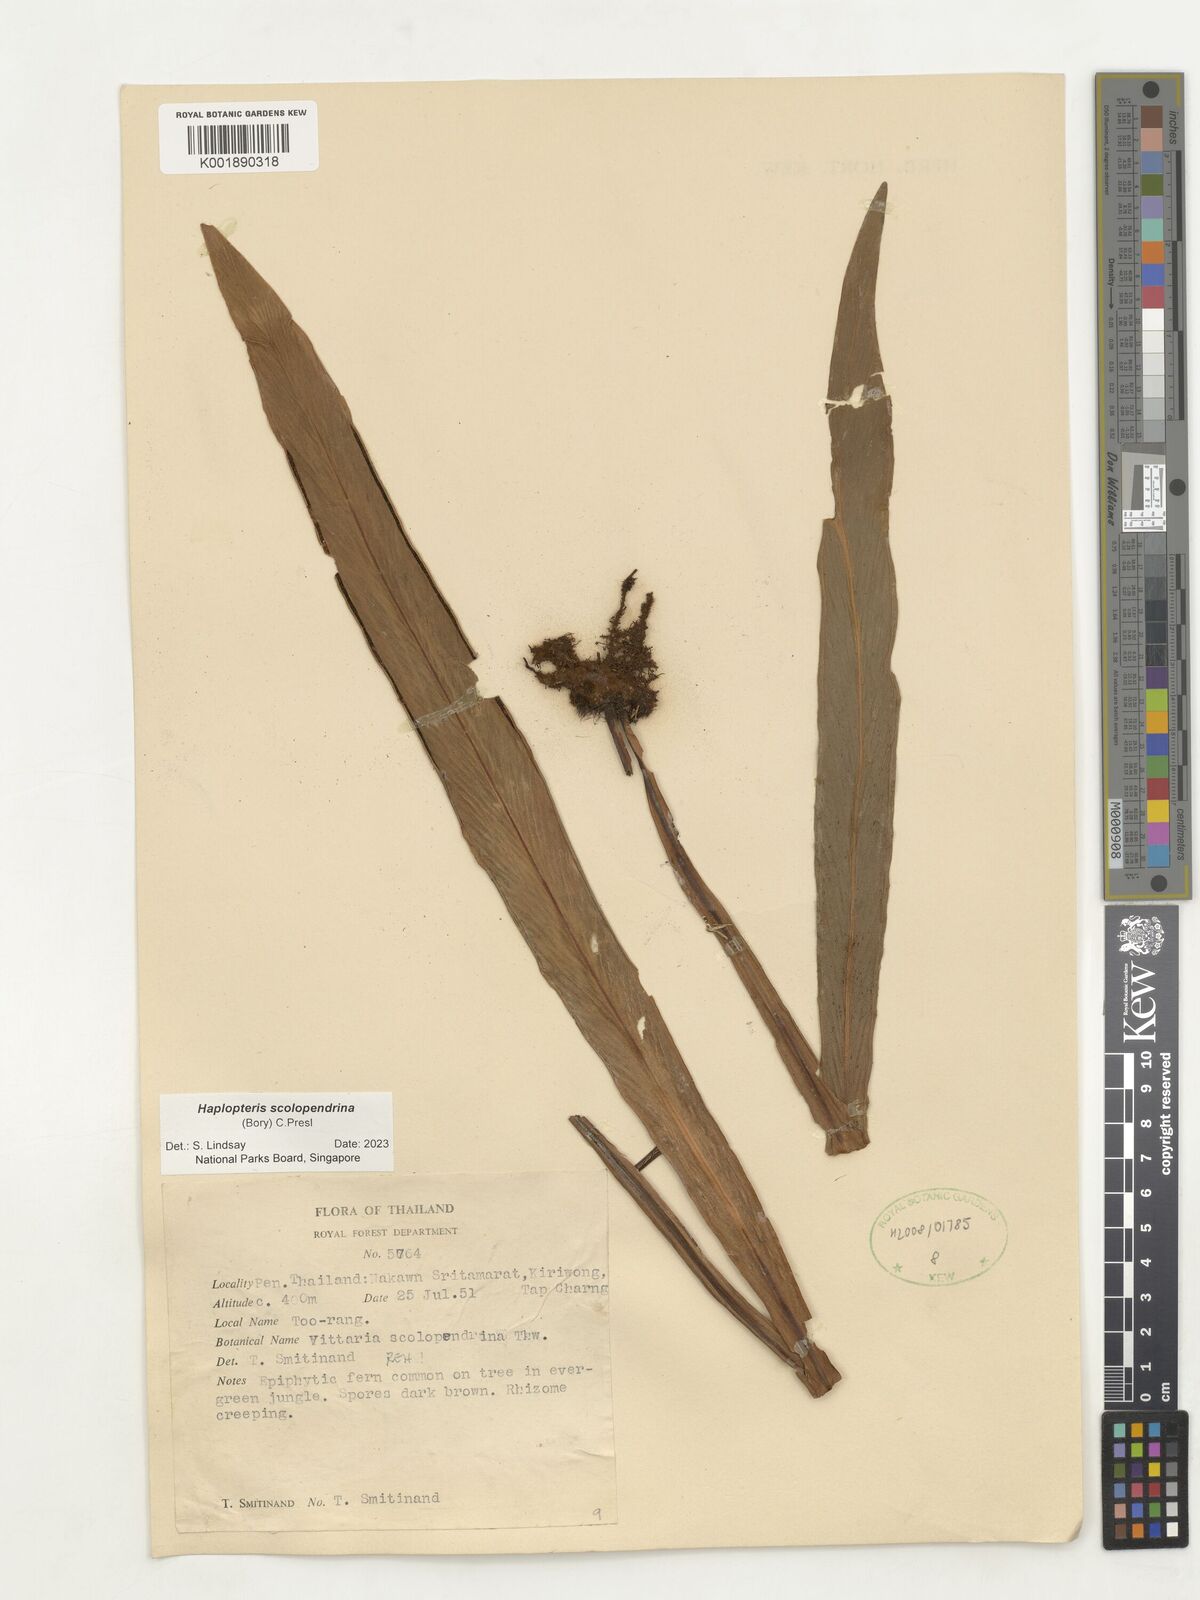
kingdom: Plantae
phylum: Tracheophyta
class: Polypodiopsida
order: Polypodiales
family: Pteridaceae
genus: Haplopteris
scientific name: Haplopteris scolopendrina
